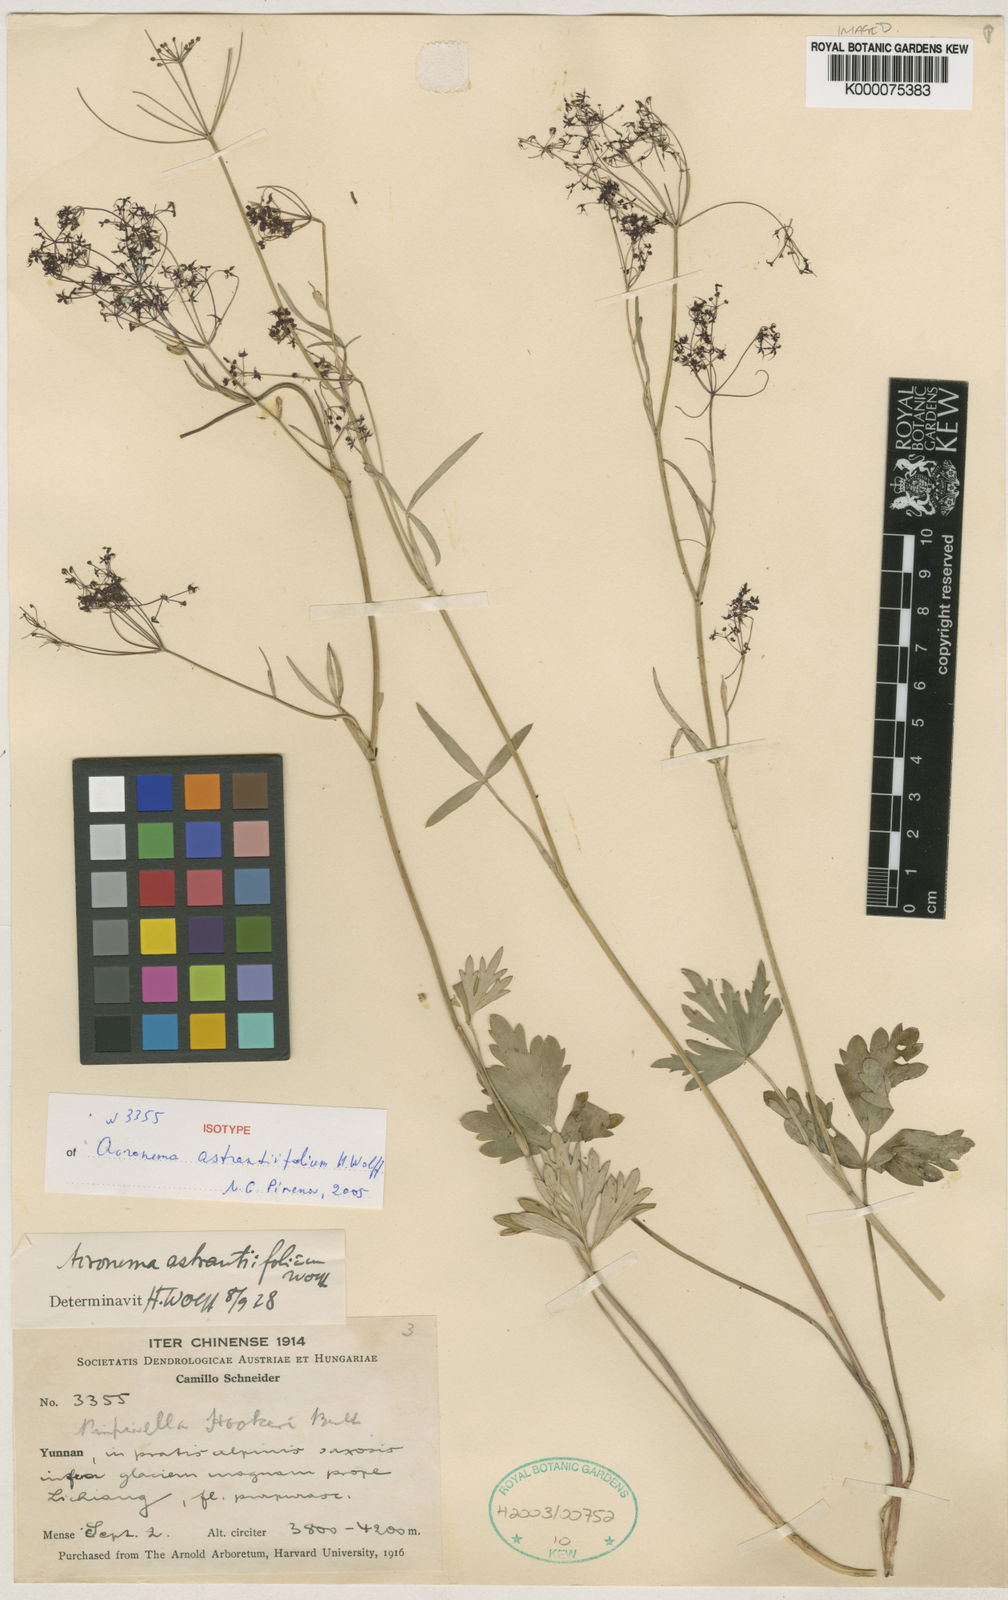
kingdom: Plantae
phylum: Tracheophyta
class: Magnoliopsida
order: Apiales
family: Apiaceae
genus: Acronema
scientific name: Acronema astrantiifolium
